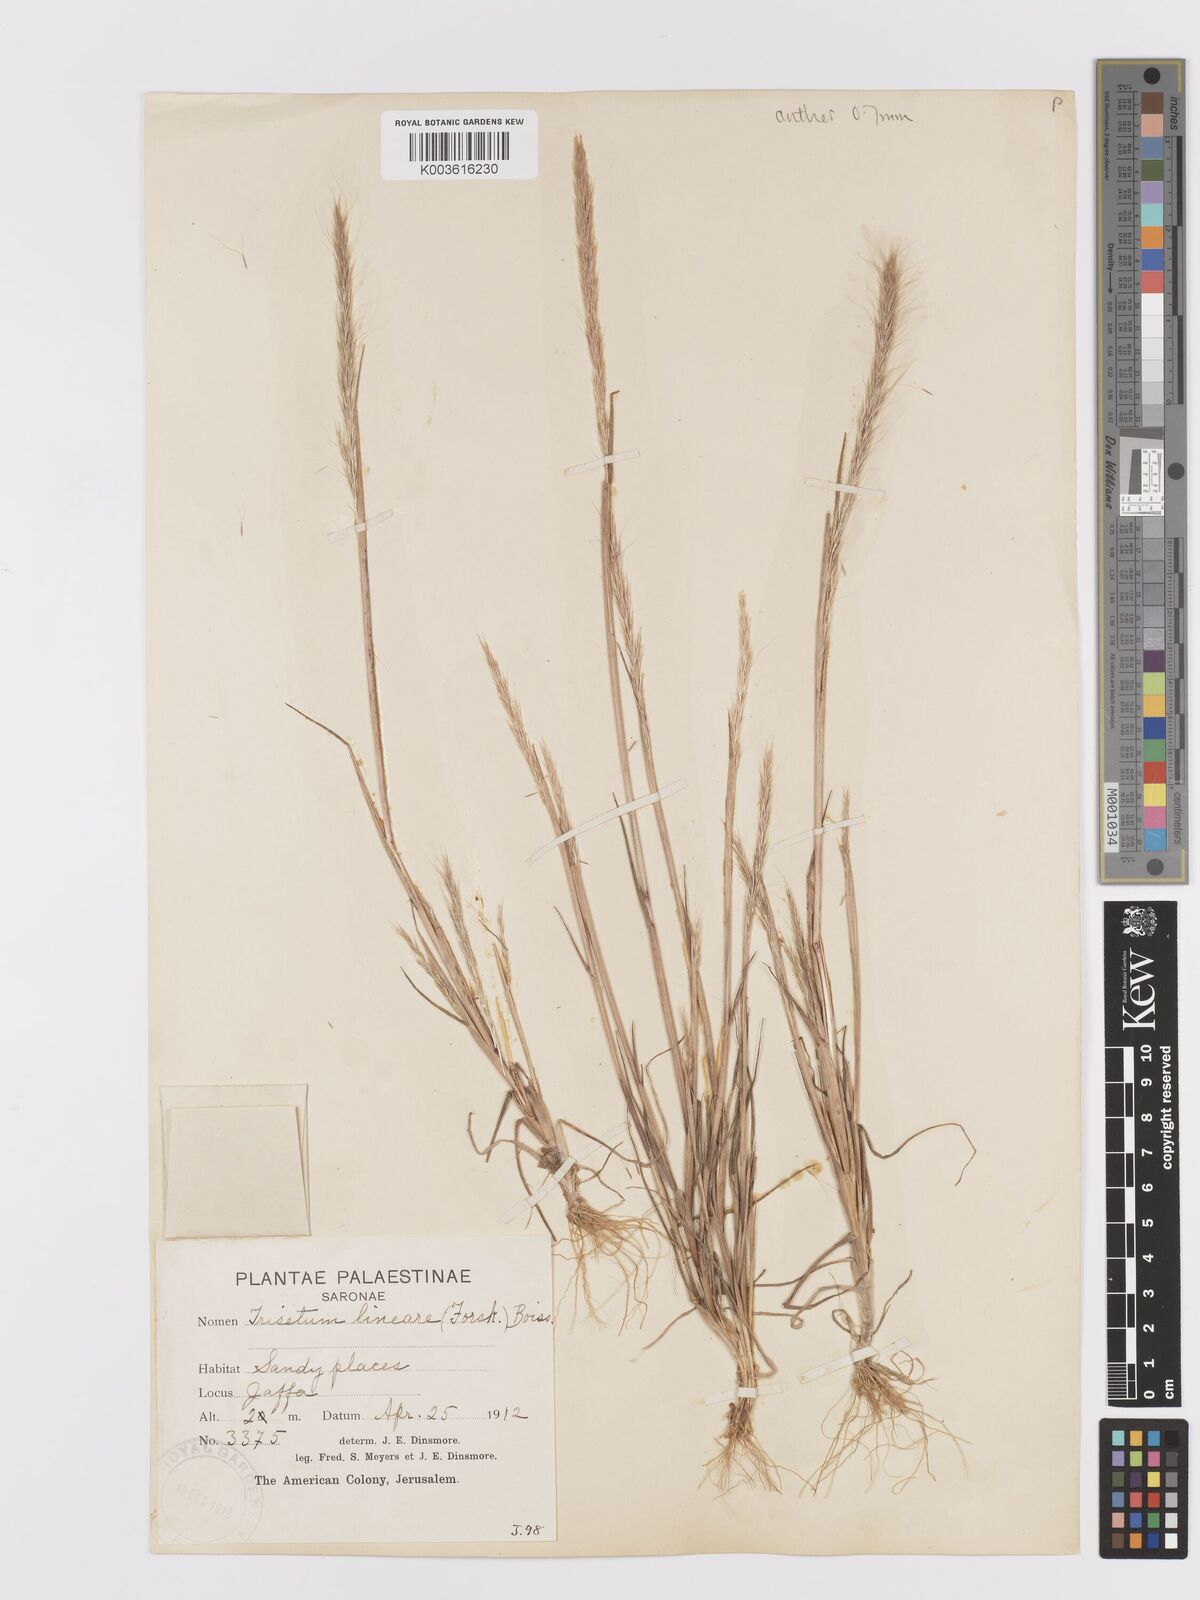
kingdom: Plantae
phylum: Tracheophyta
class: Liliopsida
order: Poales
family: Poaceae
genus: Trisetaria
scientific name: Trisetaria linearis
